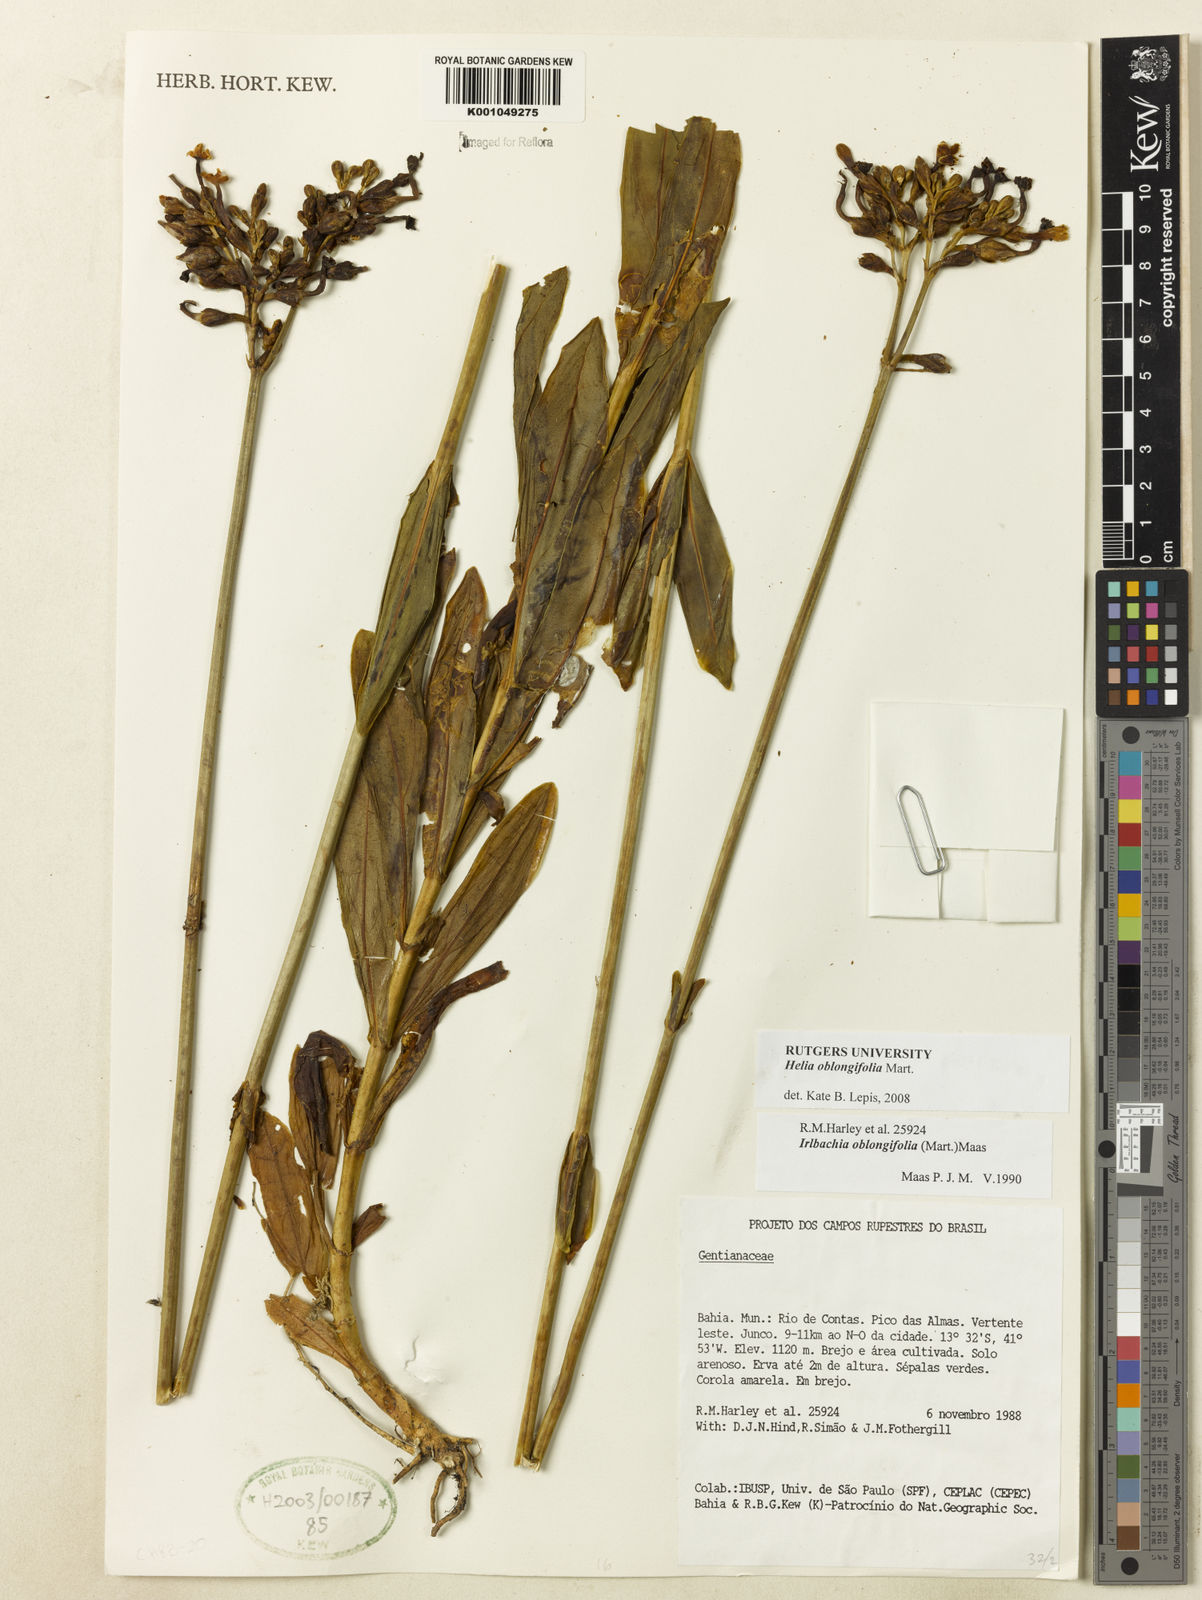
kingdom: Plantae
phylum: Tracheophyta
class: Magnoliopsida
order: Gentianales
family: Gentianaceae
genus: Irlbachia
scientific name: Irlbachia oblongifolia
